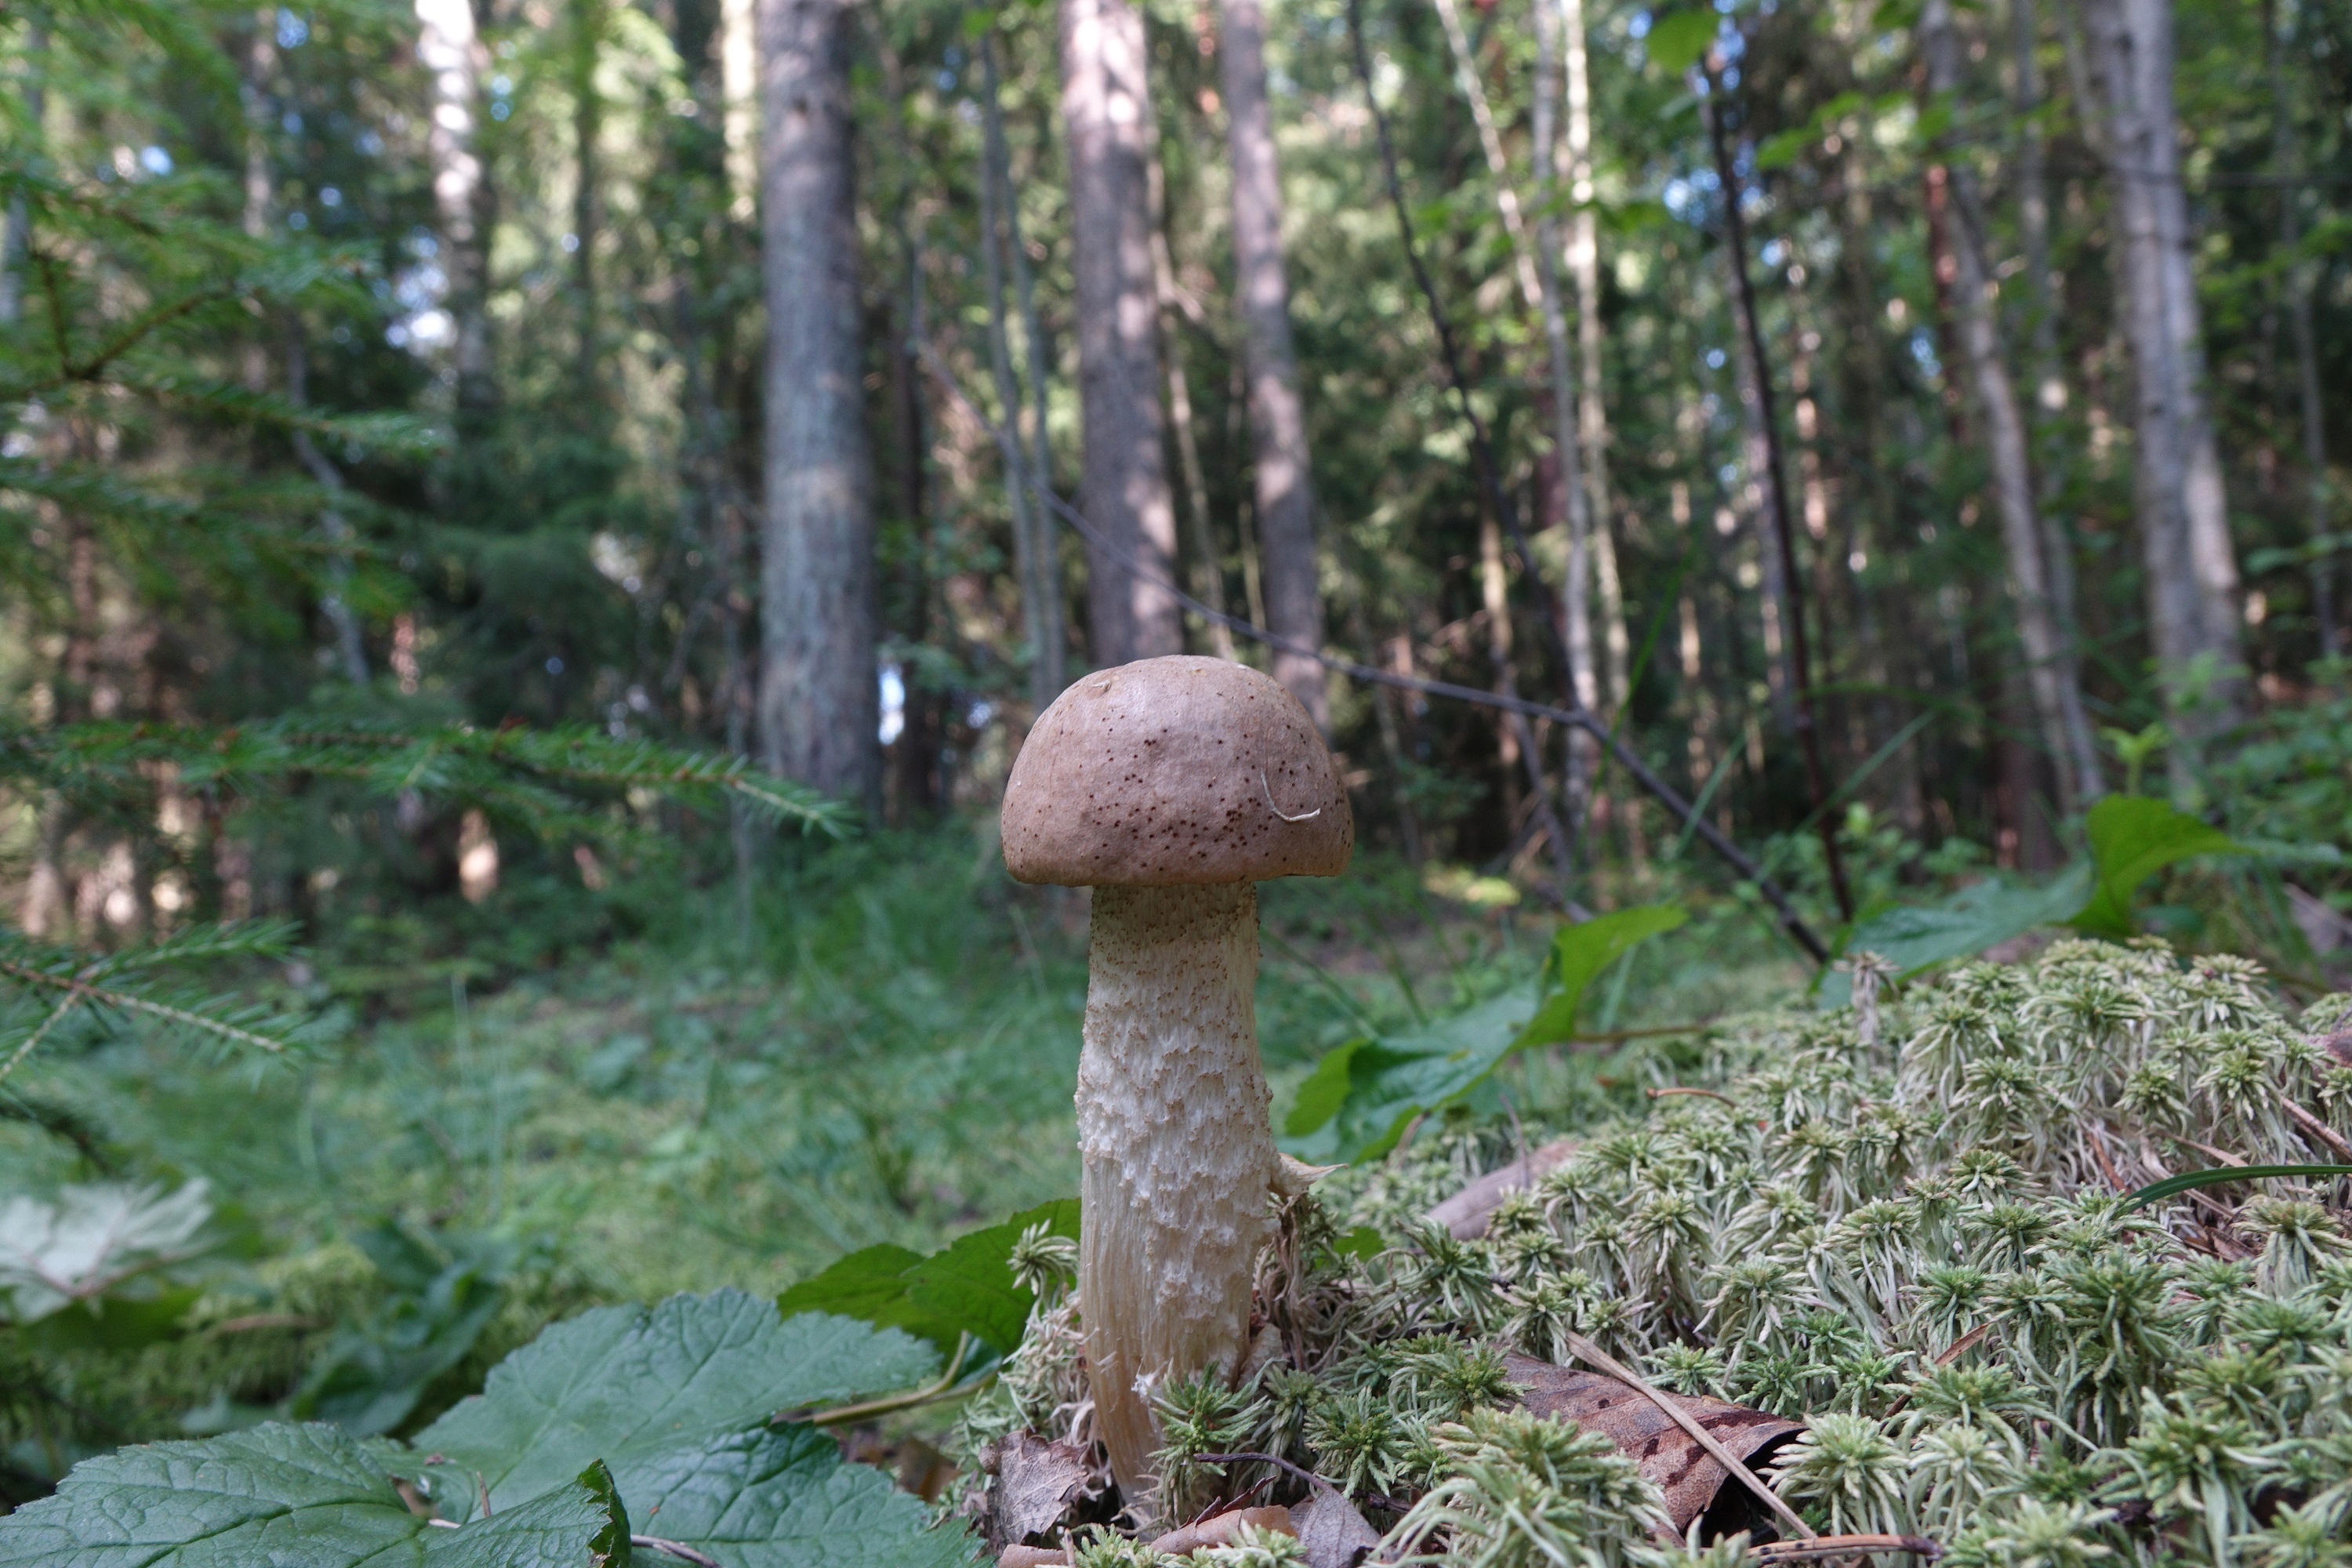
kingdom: Fungi
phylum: Basidiomycota
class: Agaricomycetes
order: Boletales
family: Boletaceae
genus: Leccinum
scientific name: Leccinum schistophilum
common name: Bog bolete
